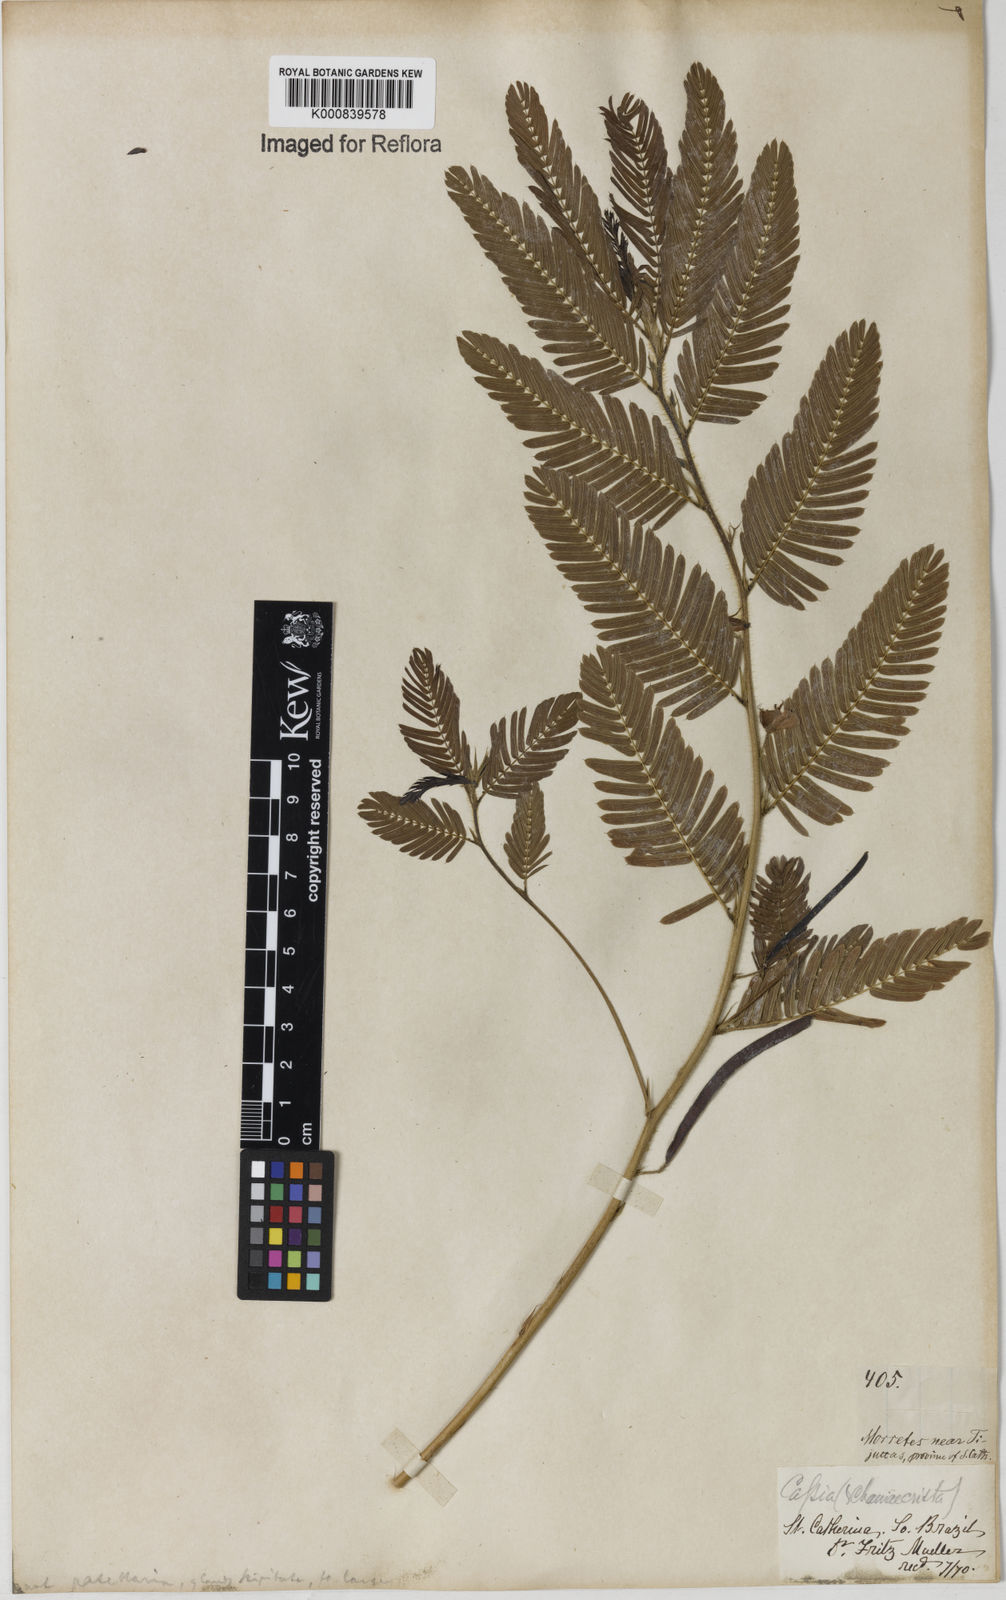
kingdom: Plantae
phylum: Tracheophyta
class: Magnoliopsida
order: Fabales
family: Fabaceae
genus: Chamaecrista
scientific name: Chamaecrista nictitans
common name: Sensitive cassia
